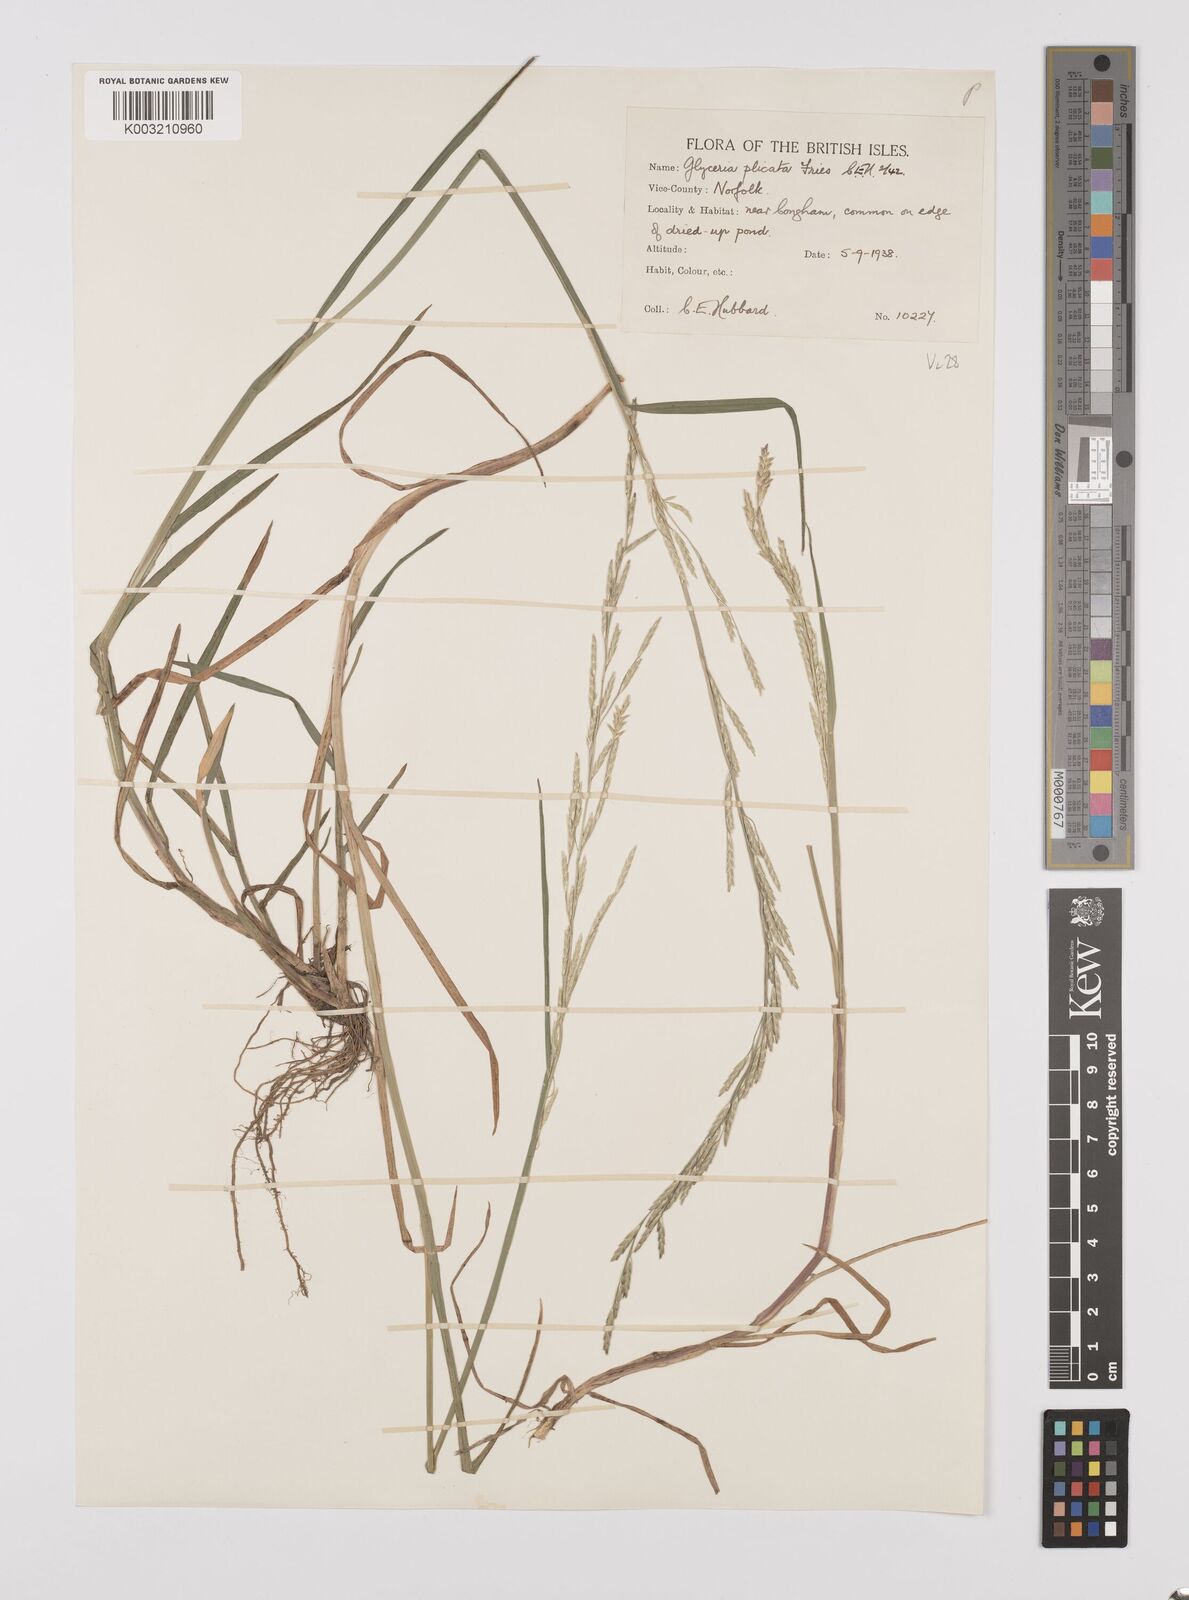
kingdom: Plantae
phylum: Tracheophyta
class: Liliopsida
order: Poales
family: Poaceae
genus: Glyceria
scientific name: Glyceria notata
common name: Plicate sweet-grass
